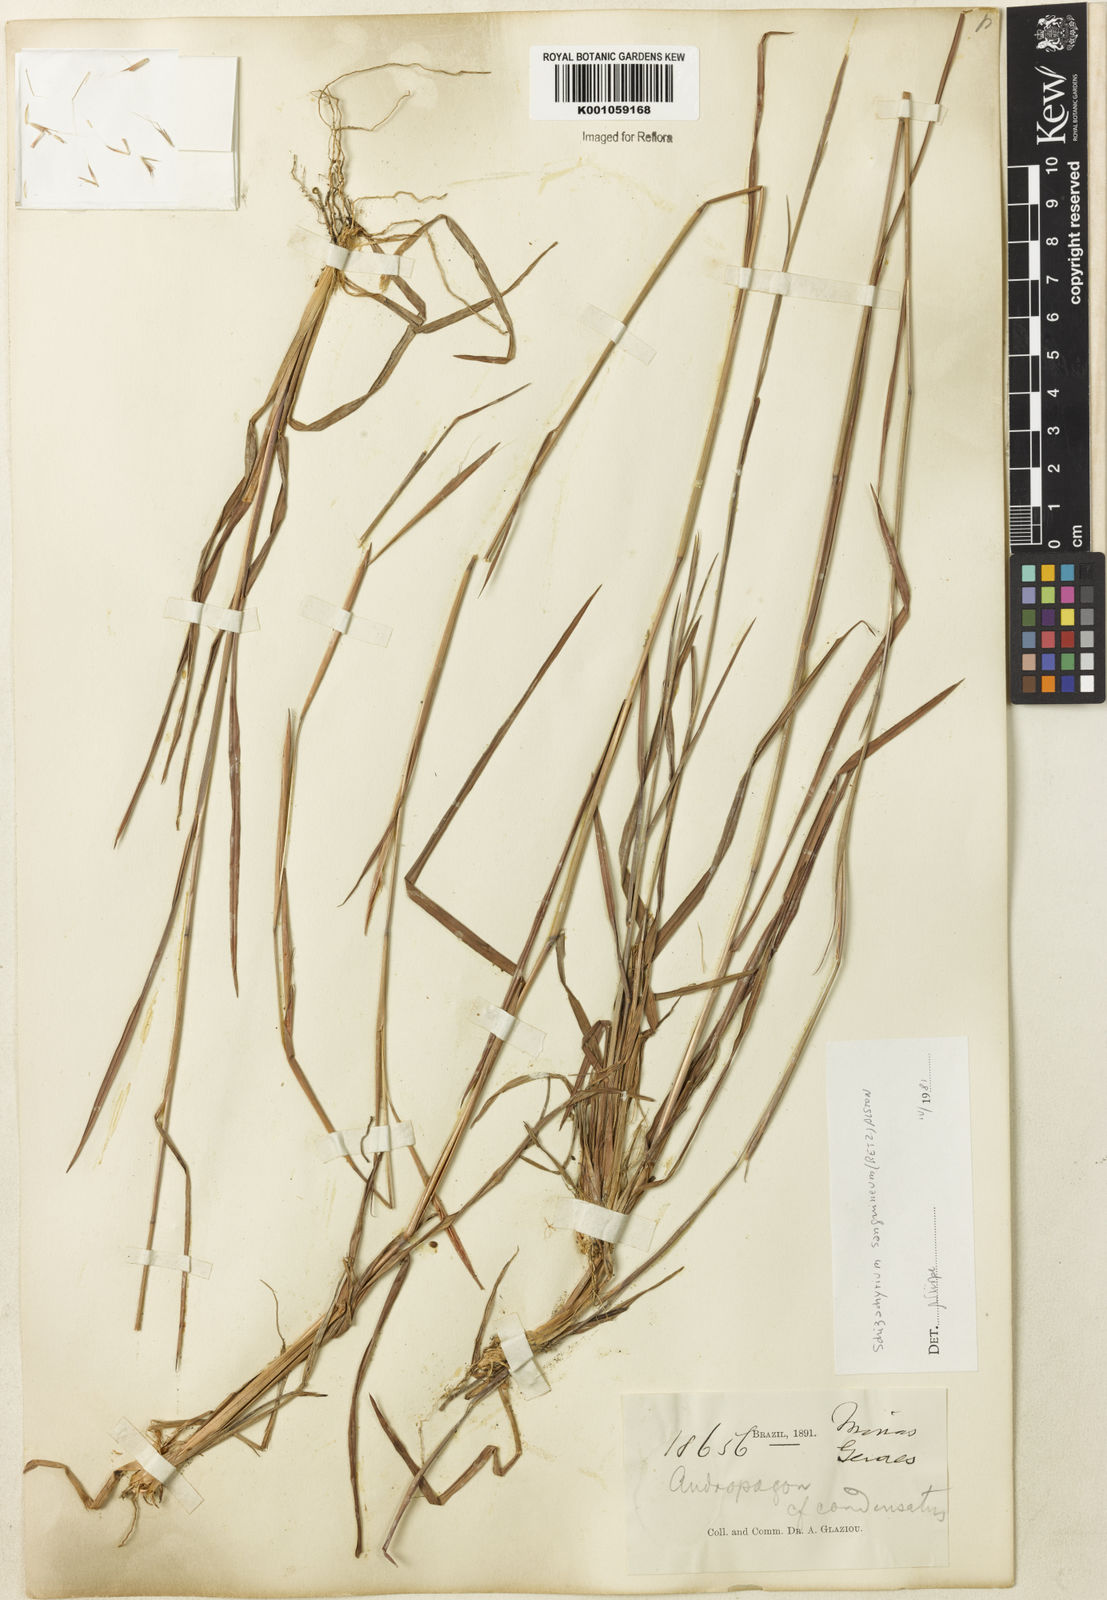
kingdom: Plantae
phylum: Tracheophyta
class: Liliopsida
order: Poales
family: Poaceae
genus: Schizachyrium
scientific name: Schizachyrium condensatum
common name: Bush beardgrass
